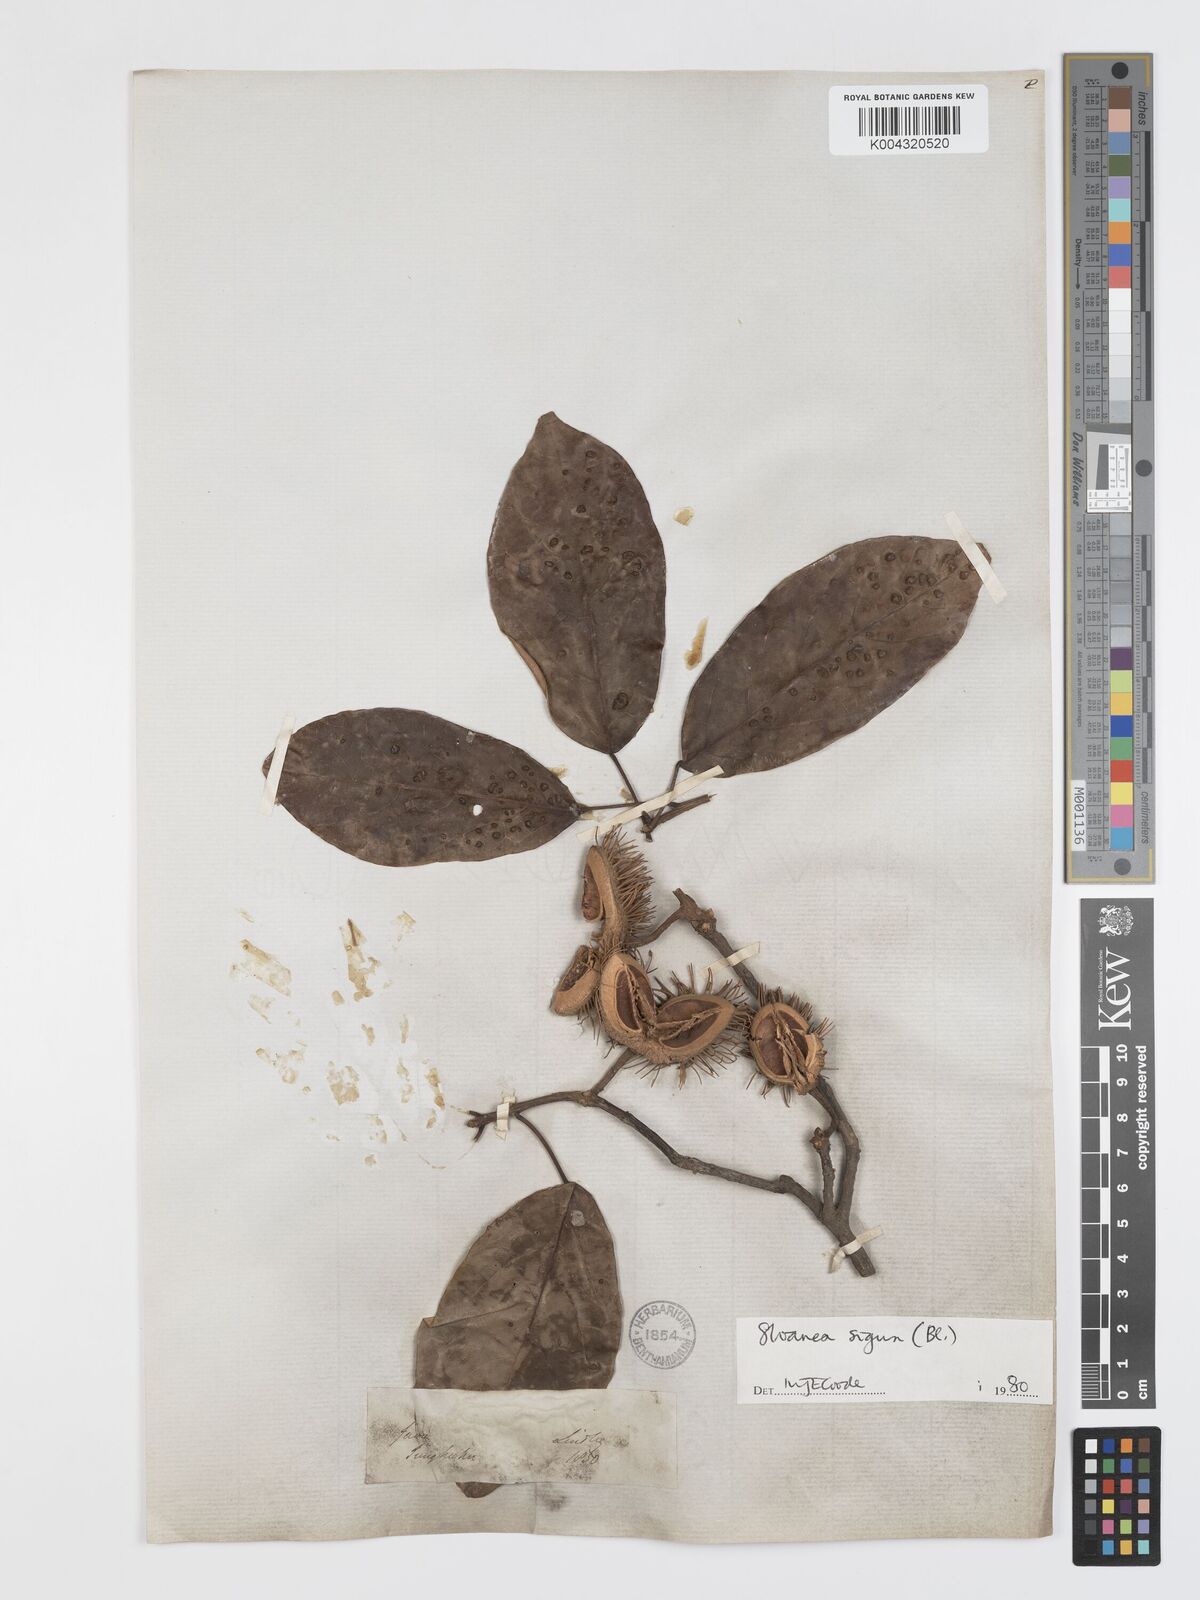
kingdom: Plantae
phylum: Tracheophyta
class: Magnoliopsida
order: Oxalidales
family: Elaeocarpaceae
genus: Sloanea
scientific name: Sloanea sigun
